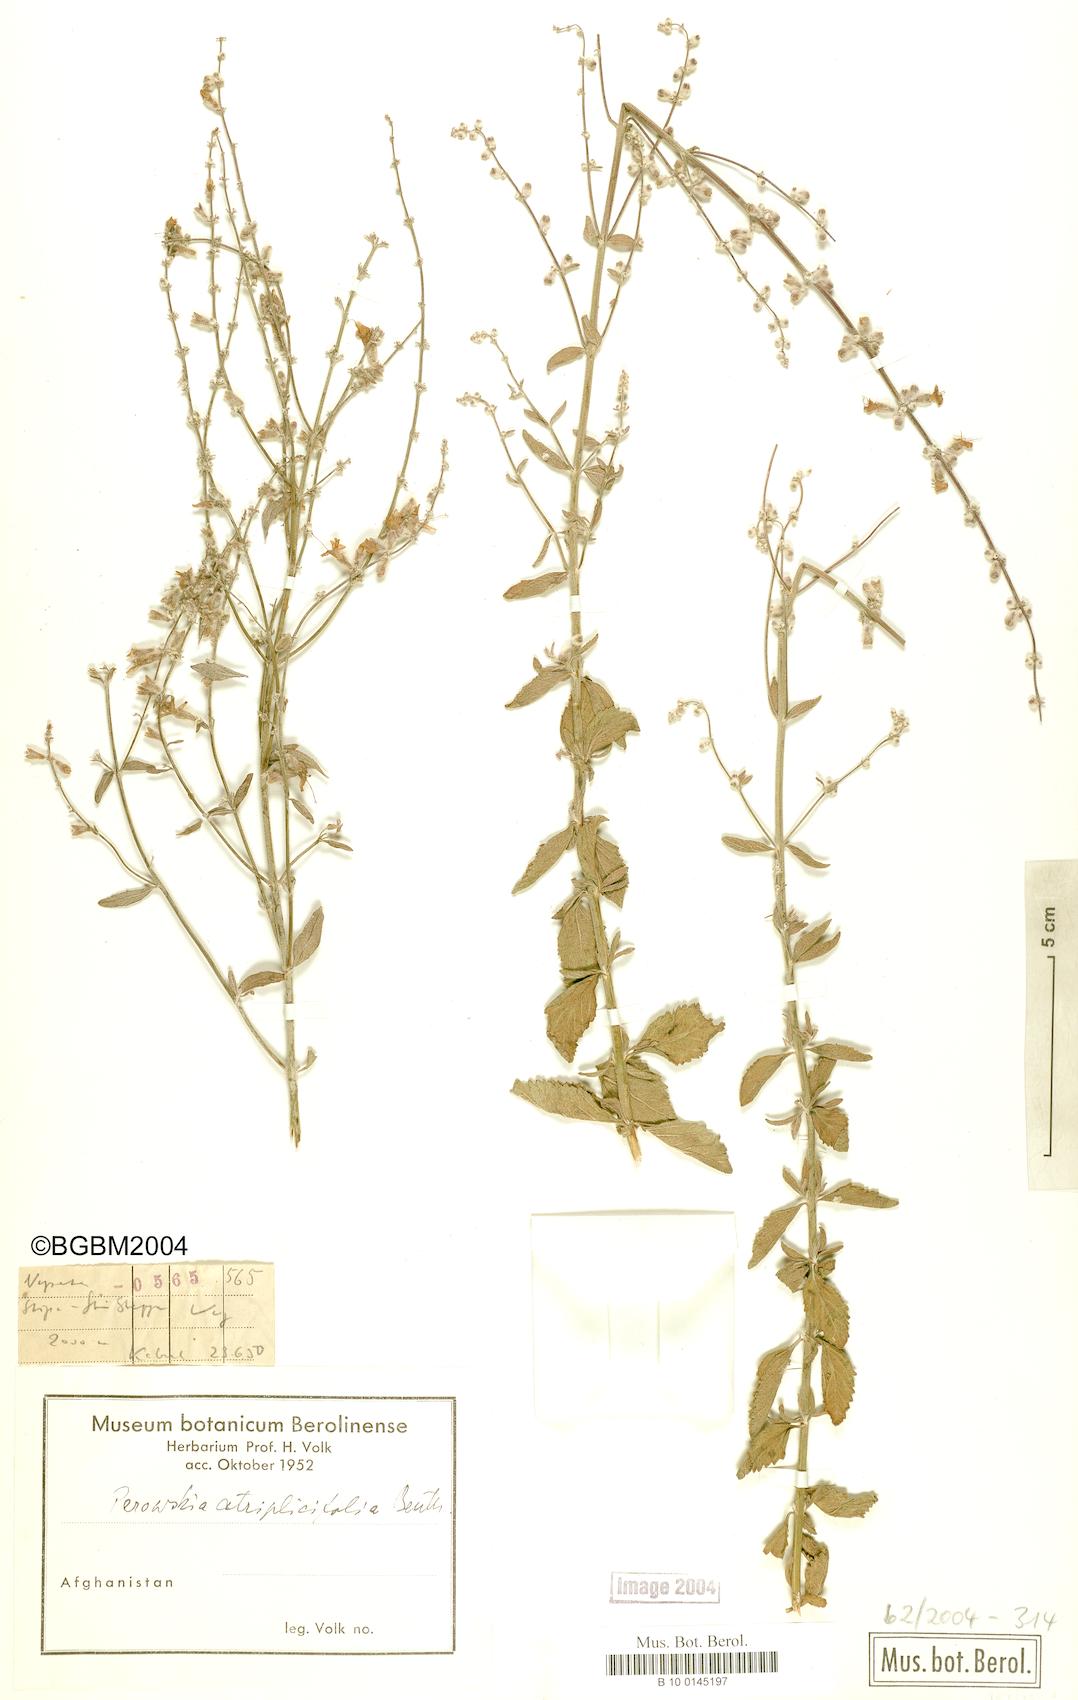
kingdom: Plantae
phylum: Tracheophyta
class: Magnoliopsida
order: Lamiales
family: Lamiaceae
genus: Salvia
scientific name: Salvia yangii
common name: Russian sage
